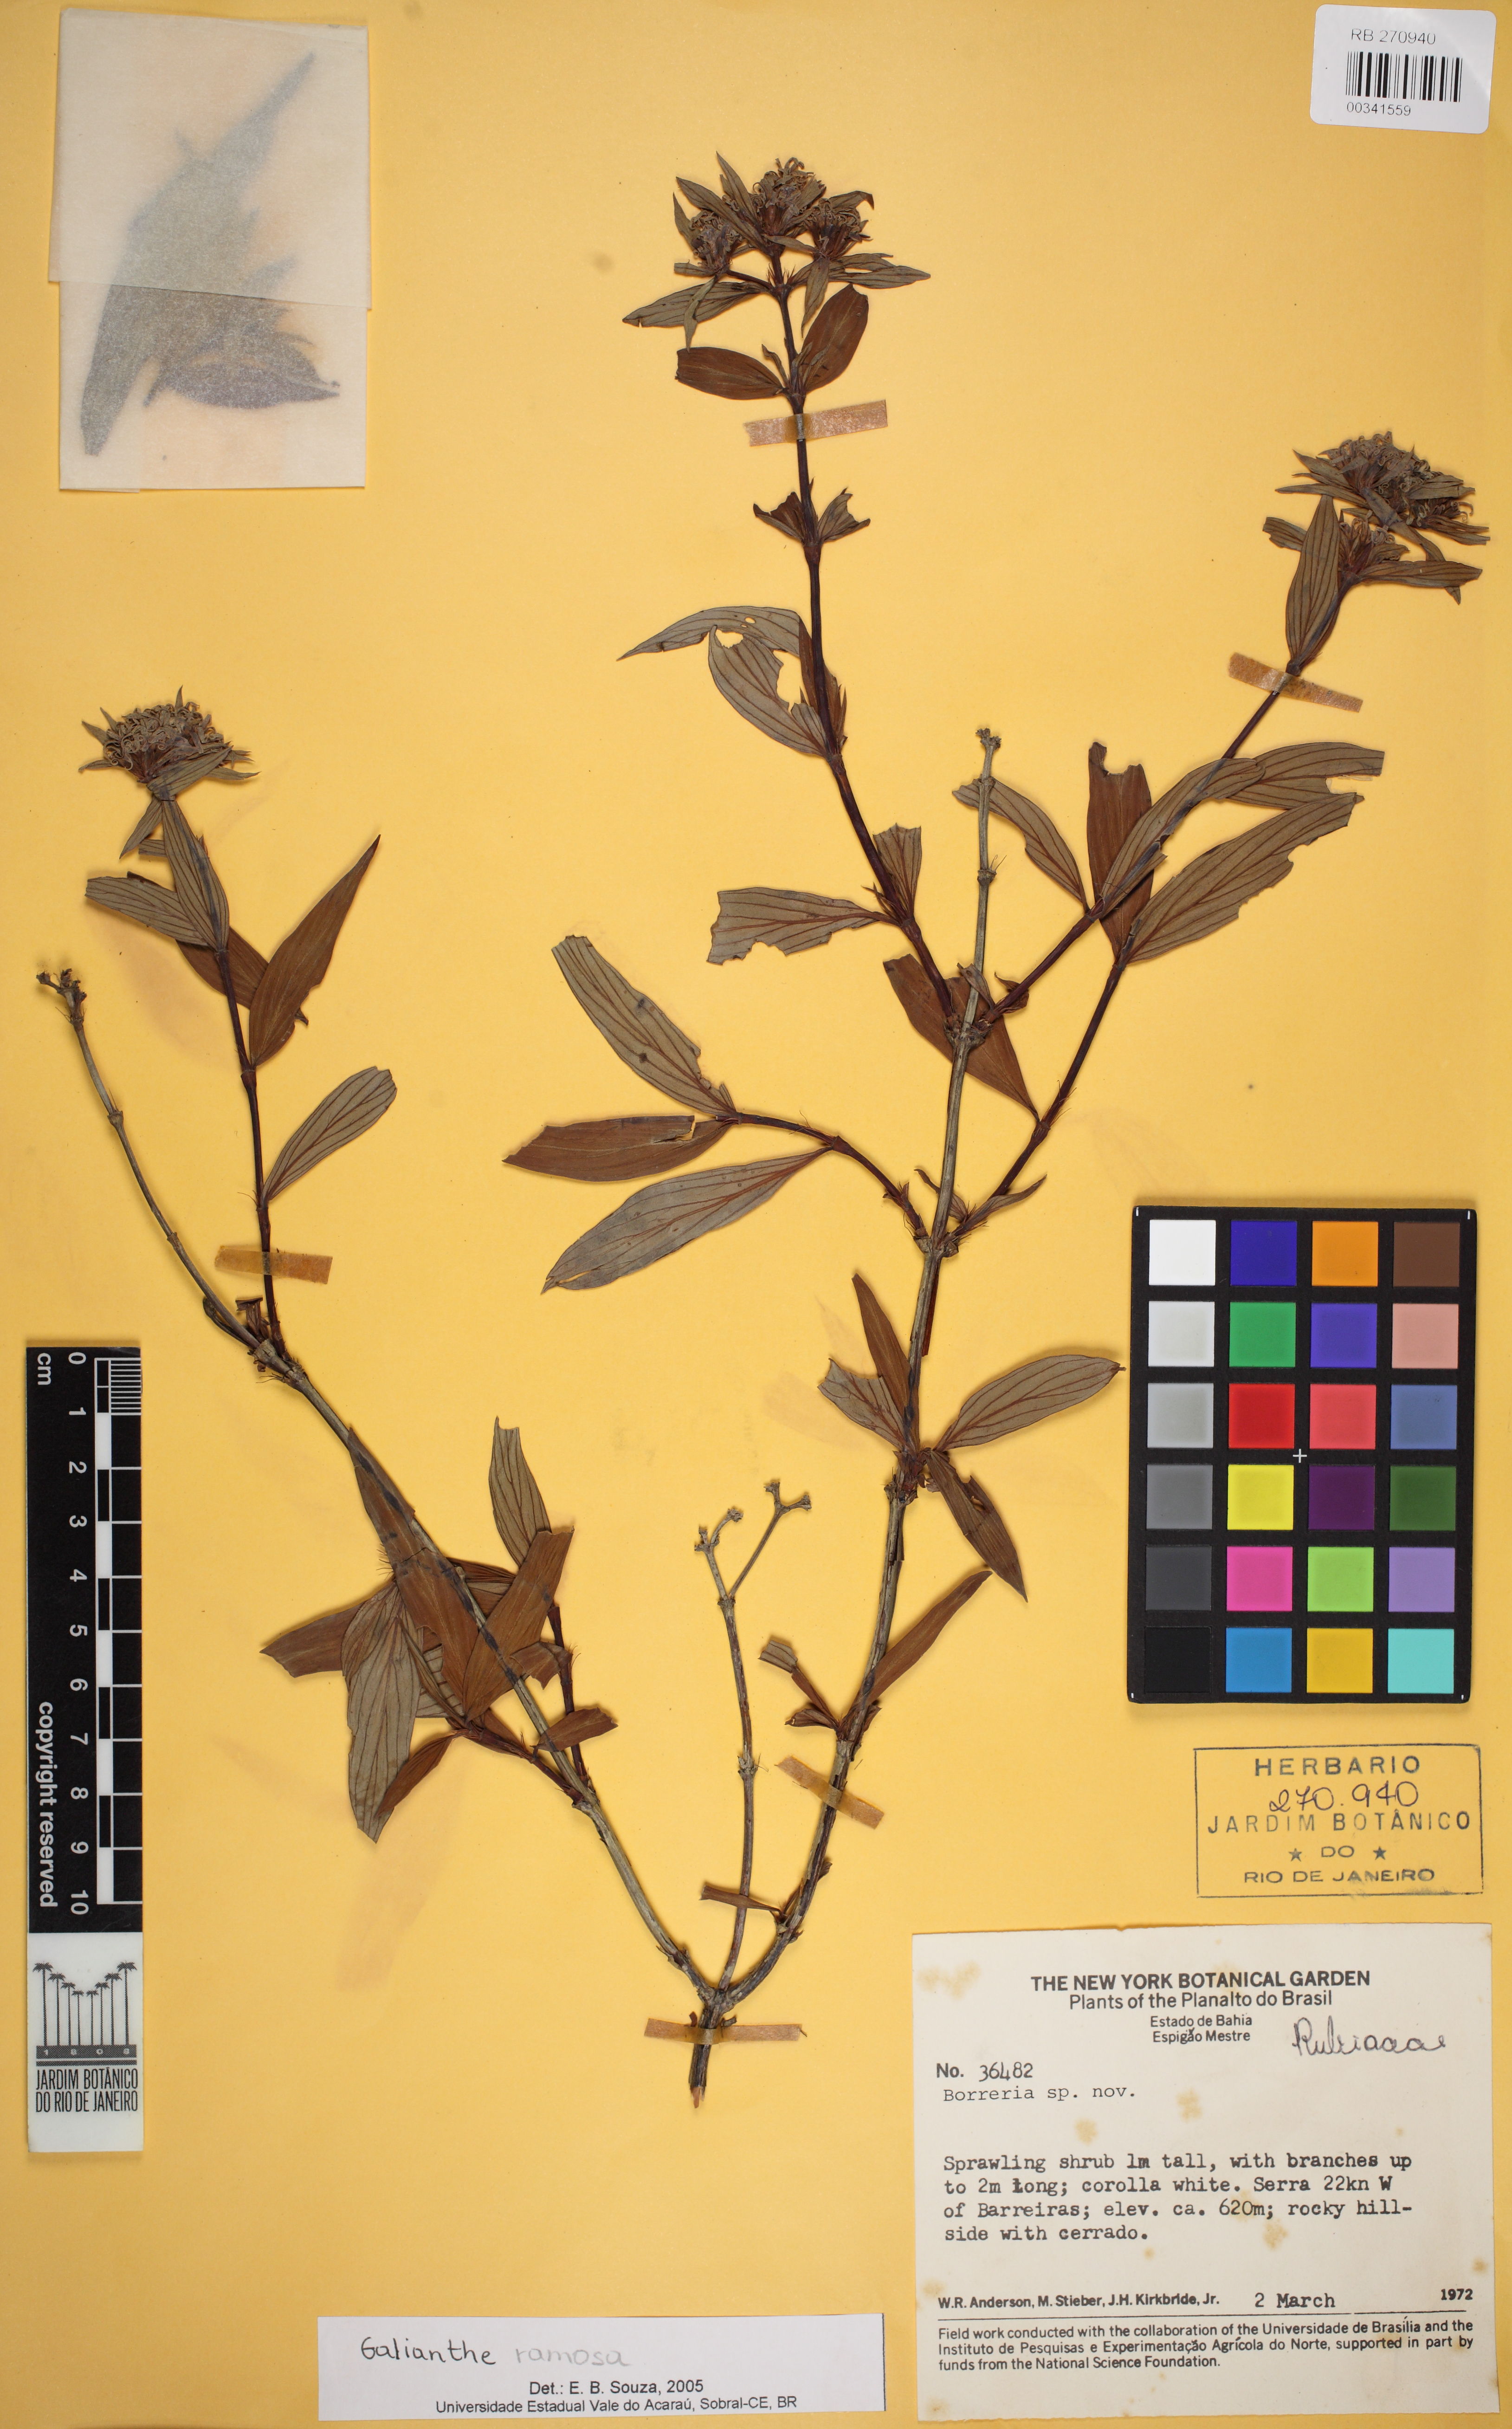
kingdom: Plantae
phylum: Tracheophyta
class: Magnoliopsida
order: Gentianales
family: Rubiaceae
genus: Spermacoce
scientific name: Spermacoce reflexa
